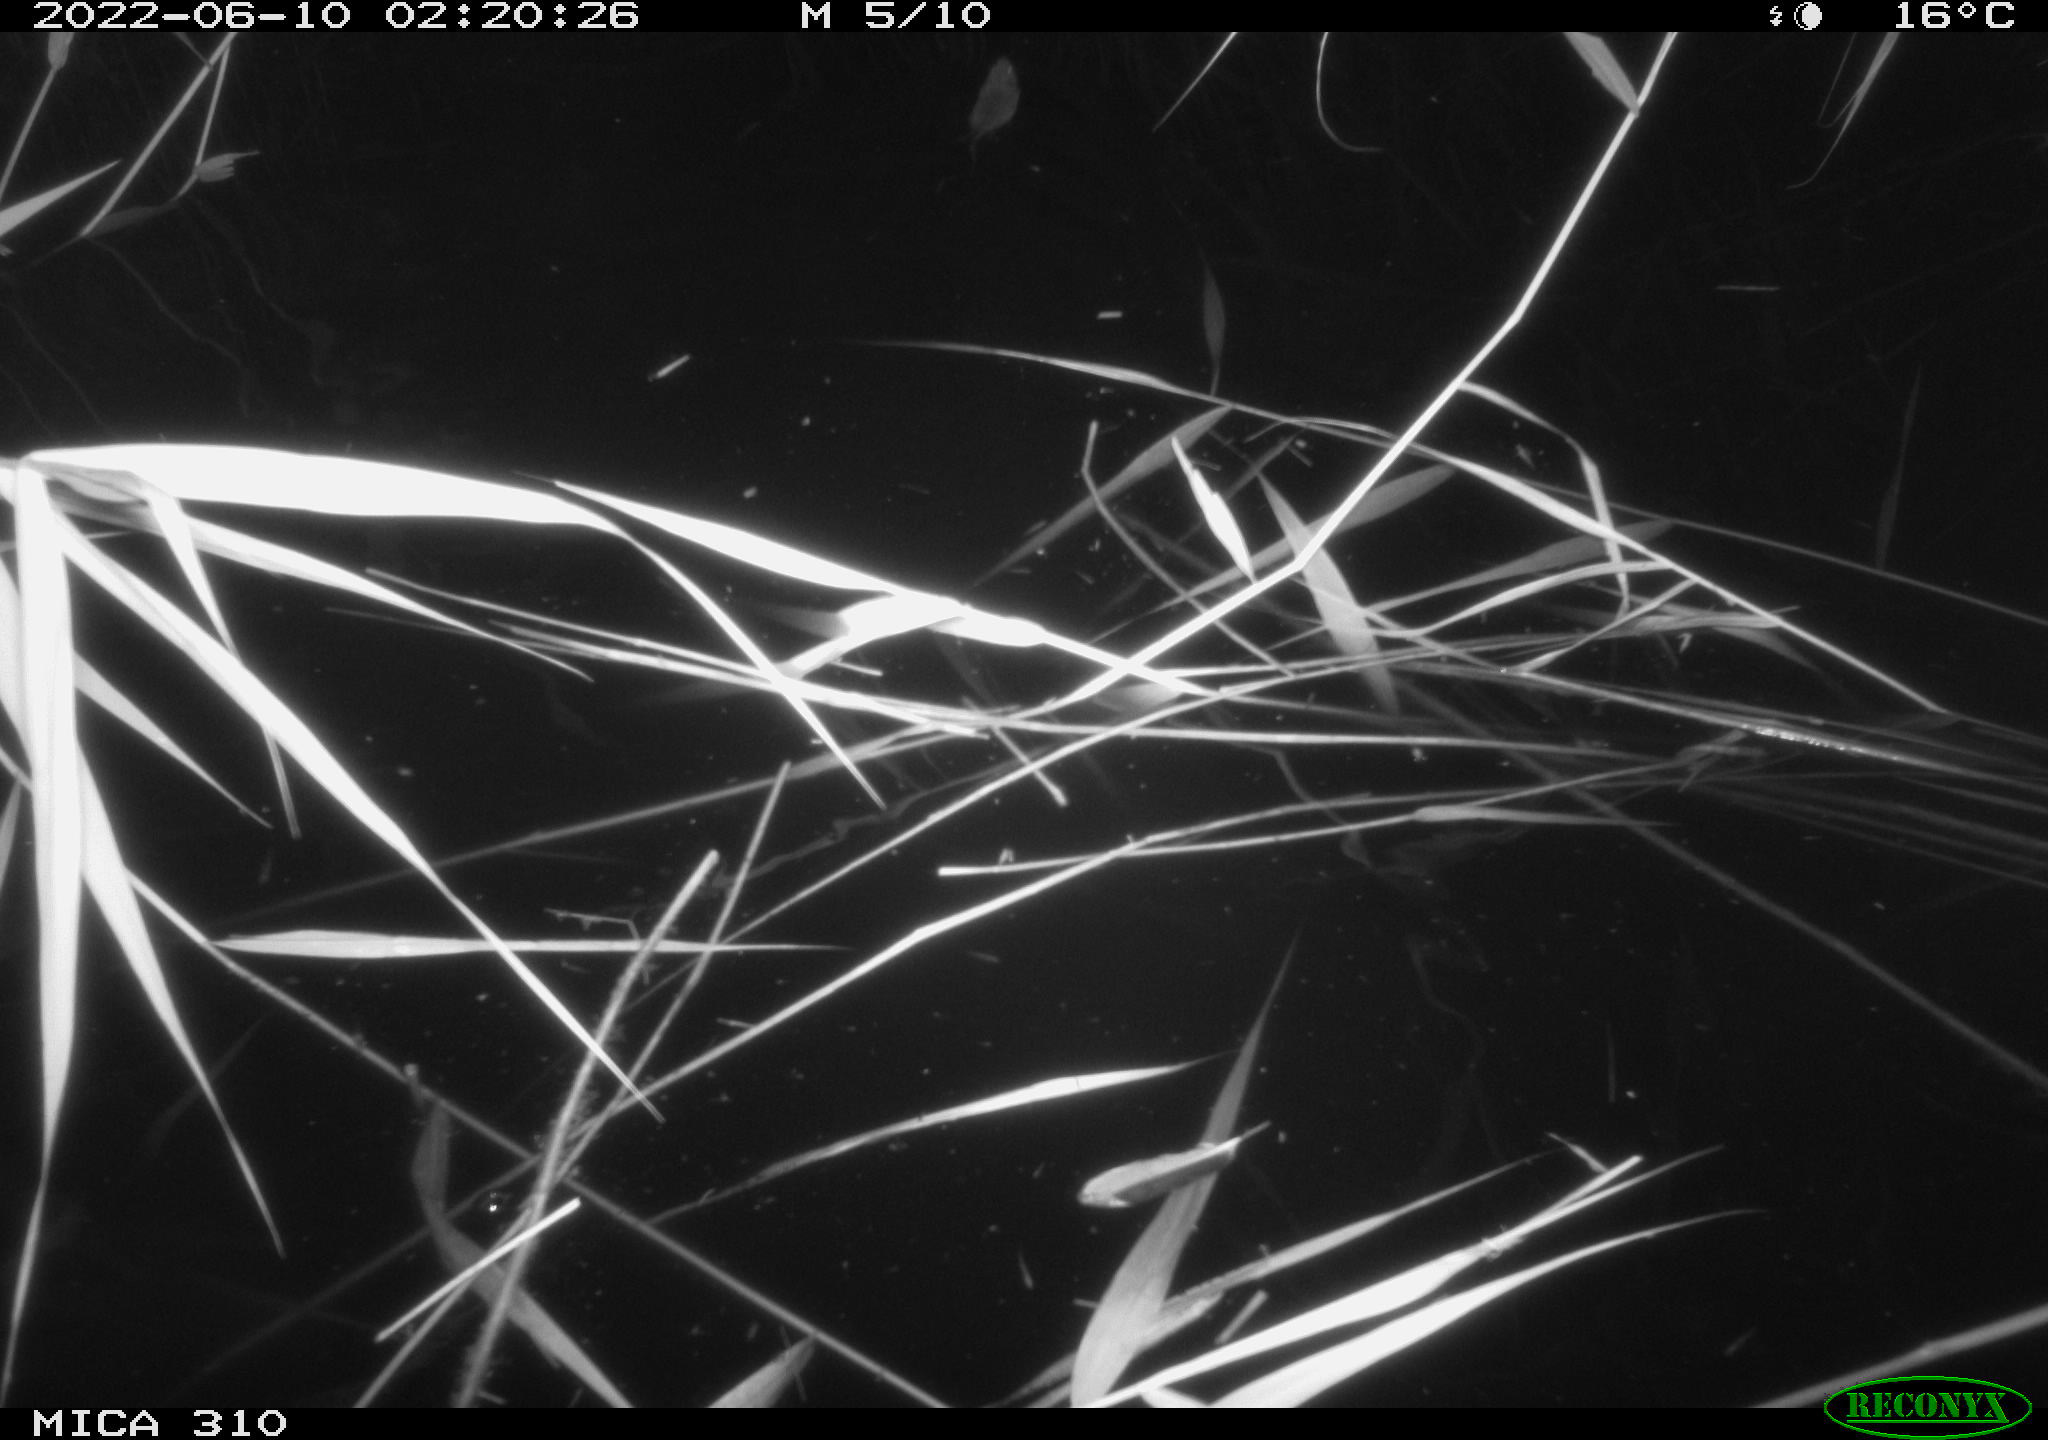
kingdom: Animalia
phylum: Chordata
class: Mammalia
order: Rodentia
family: Muridae
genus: Rattus
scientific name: Rattus norvegicus
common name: Brown rat
